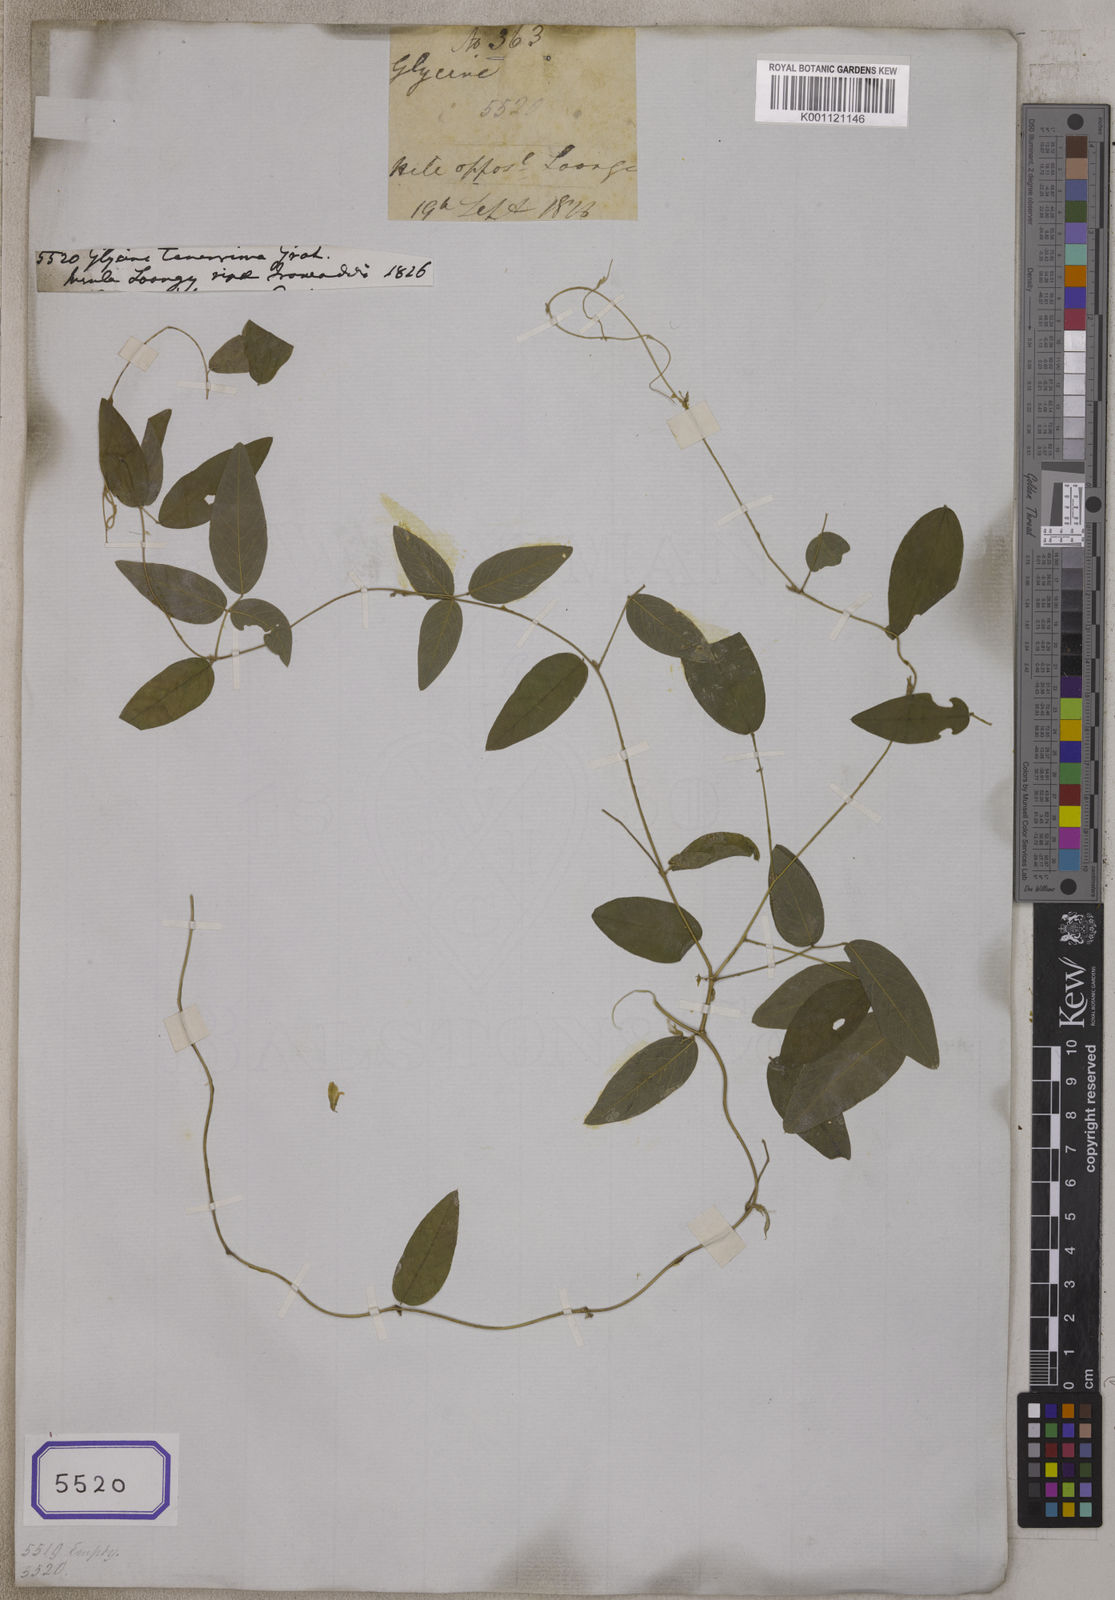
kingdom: Plantae
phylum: Tracheophyta
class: Magnoliopsida
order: Fabales
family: Fabaceae
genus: Teramnus
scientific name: Teramnus labialis
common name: Blue wiss
